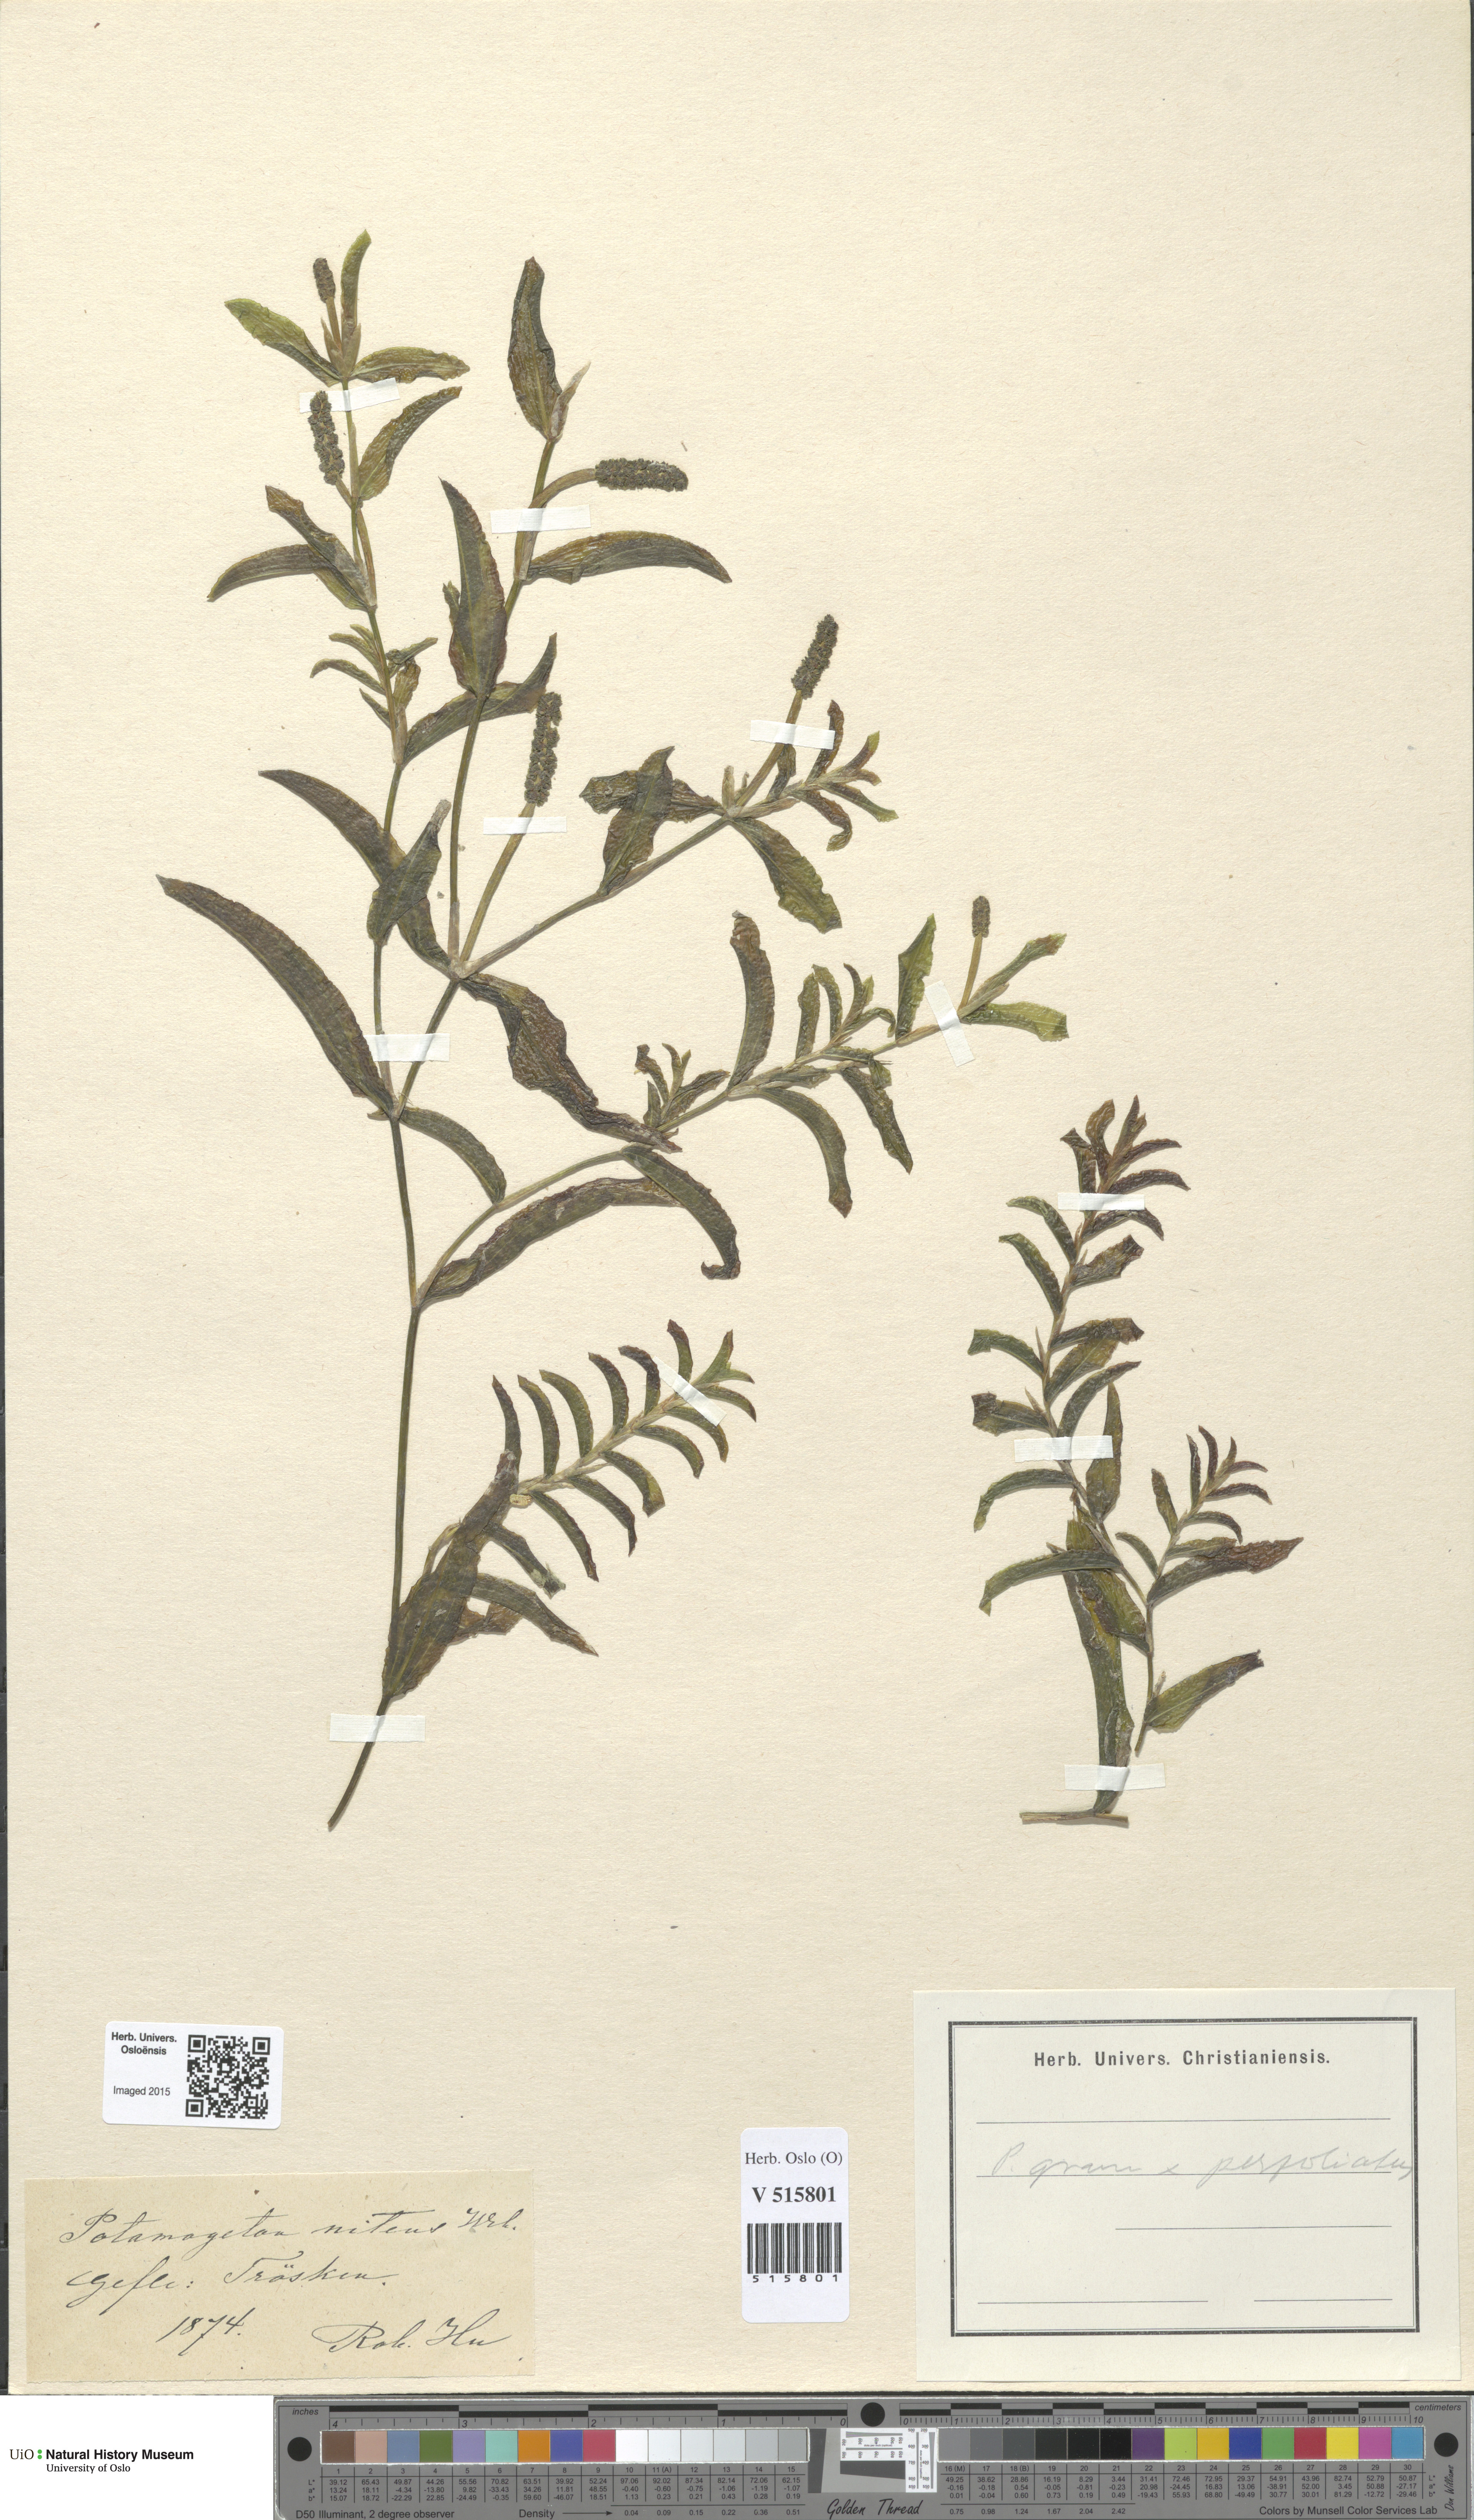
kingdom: Plantae
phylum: Tracheophyta
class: Liliopsida
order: Alismatales
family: Potamogetonaceae
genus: Potamogeton
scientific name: Potamogeton nitens
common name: Pondweed
